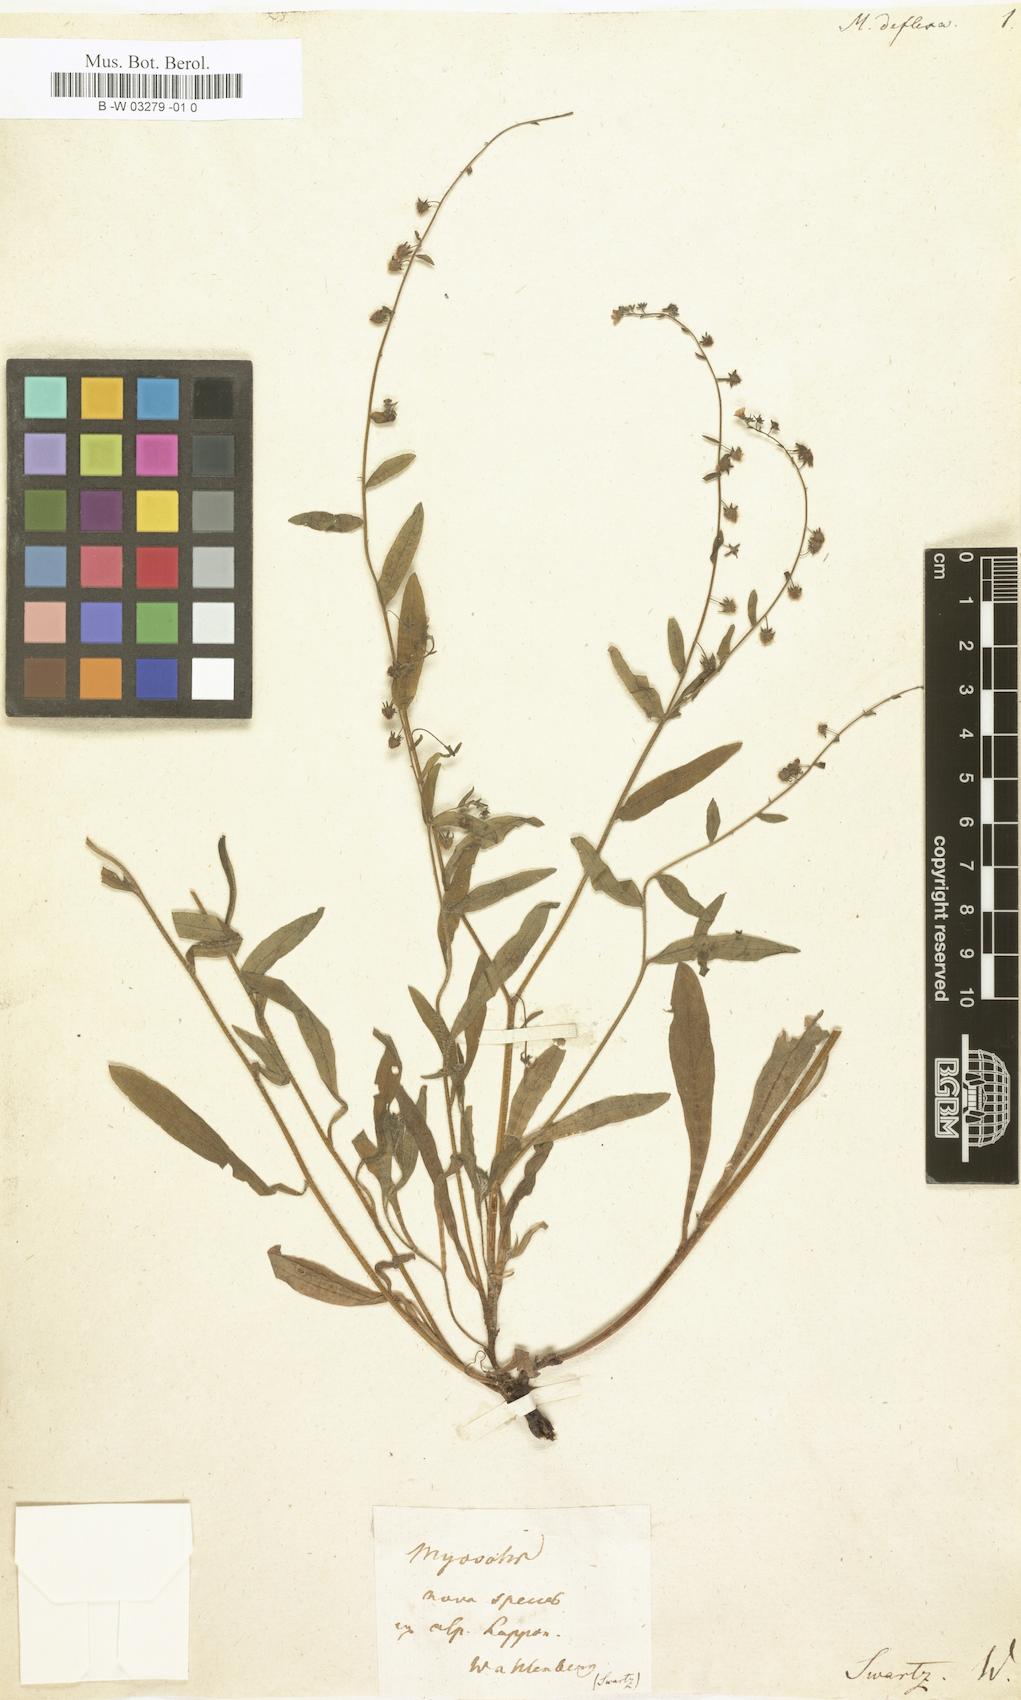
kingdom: Plantae
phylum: Tracheophyta
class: Magnoliopsida
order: Boraginales
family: Boraginaceae
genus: Myosotis
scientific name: Myosotis
